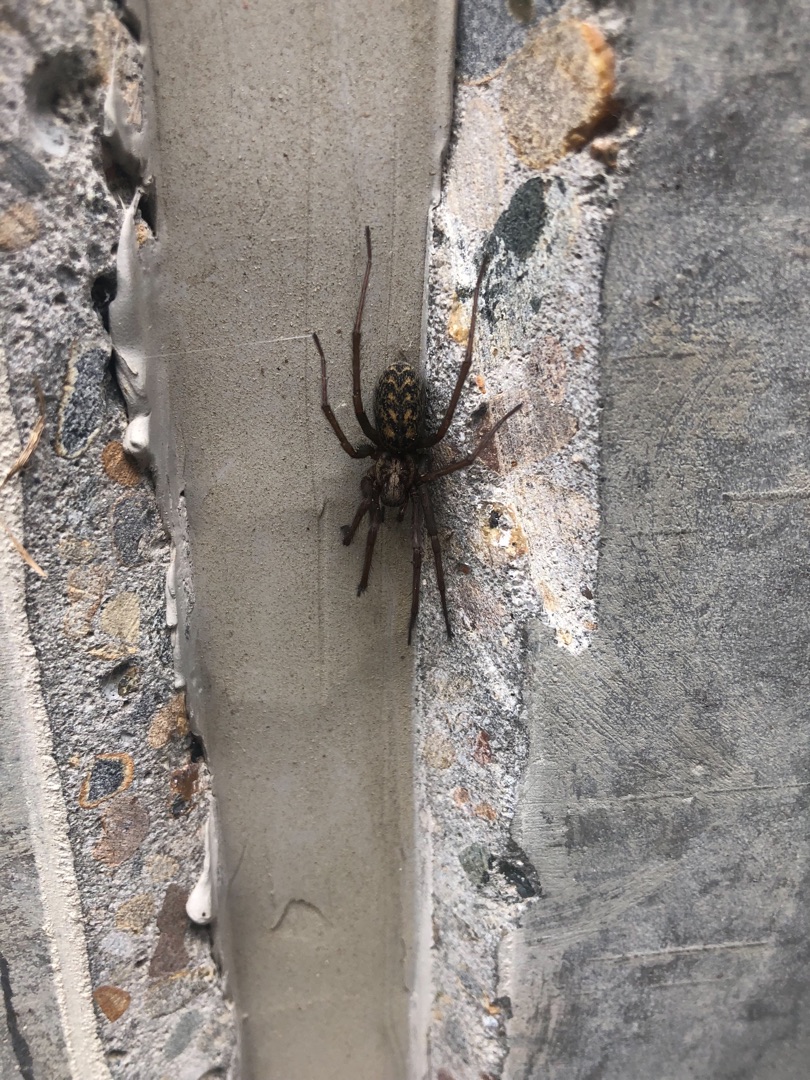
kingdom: Animalia
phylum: Arthropoda
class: Arachnida
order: Araneae
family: Agelenidae
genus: Eratigena
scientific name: Eratigena atrica
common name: Stor husedderkop
